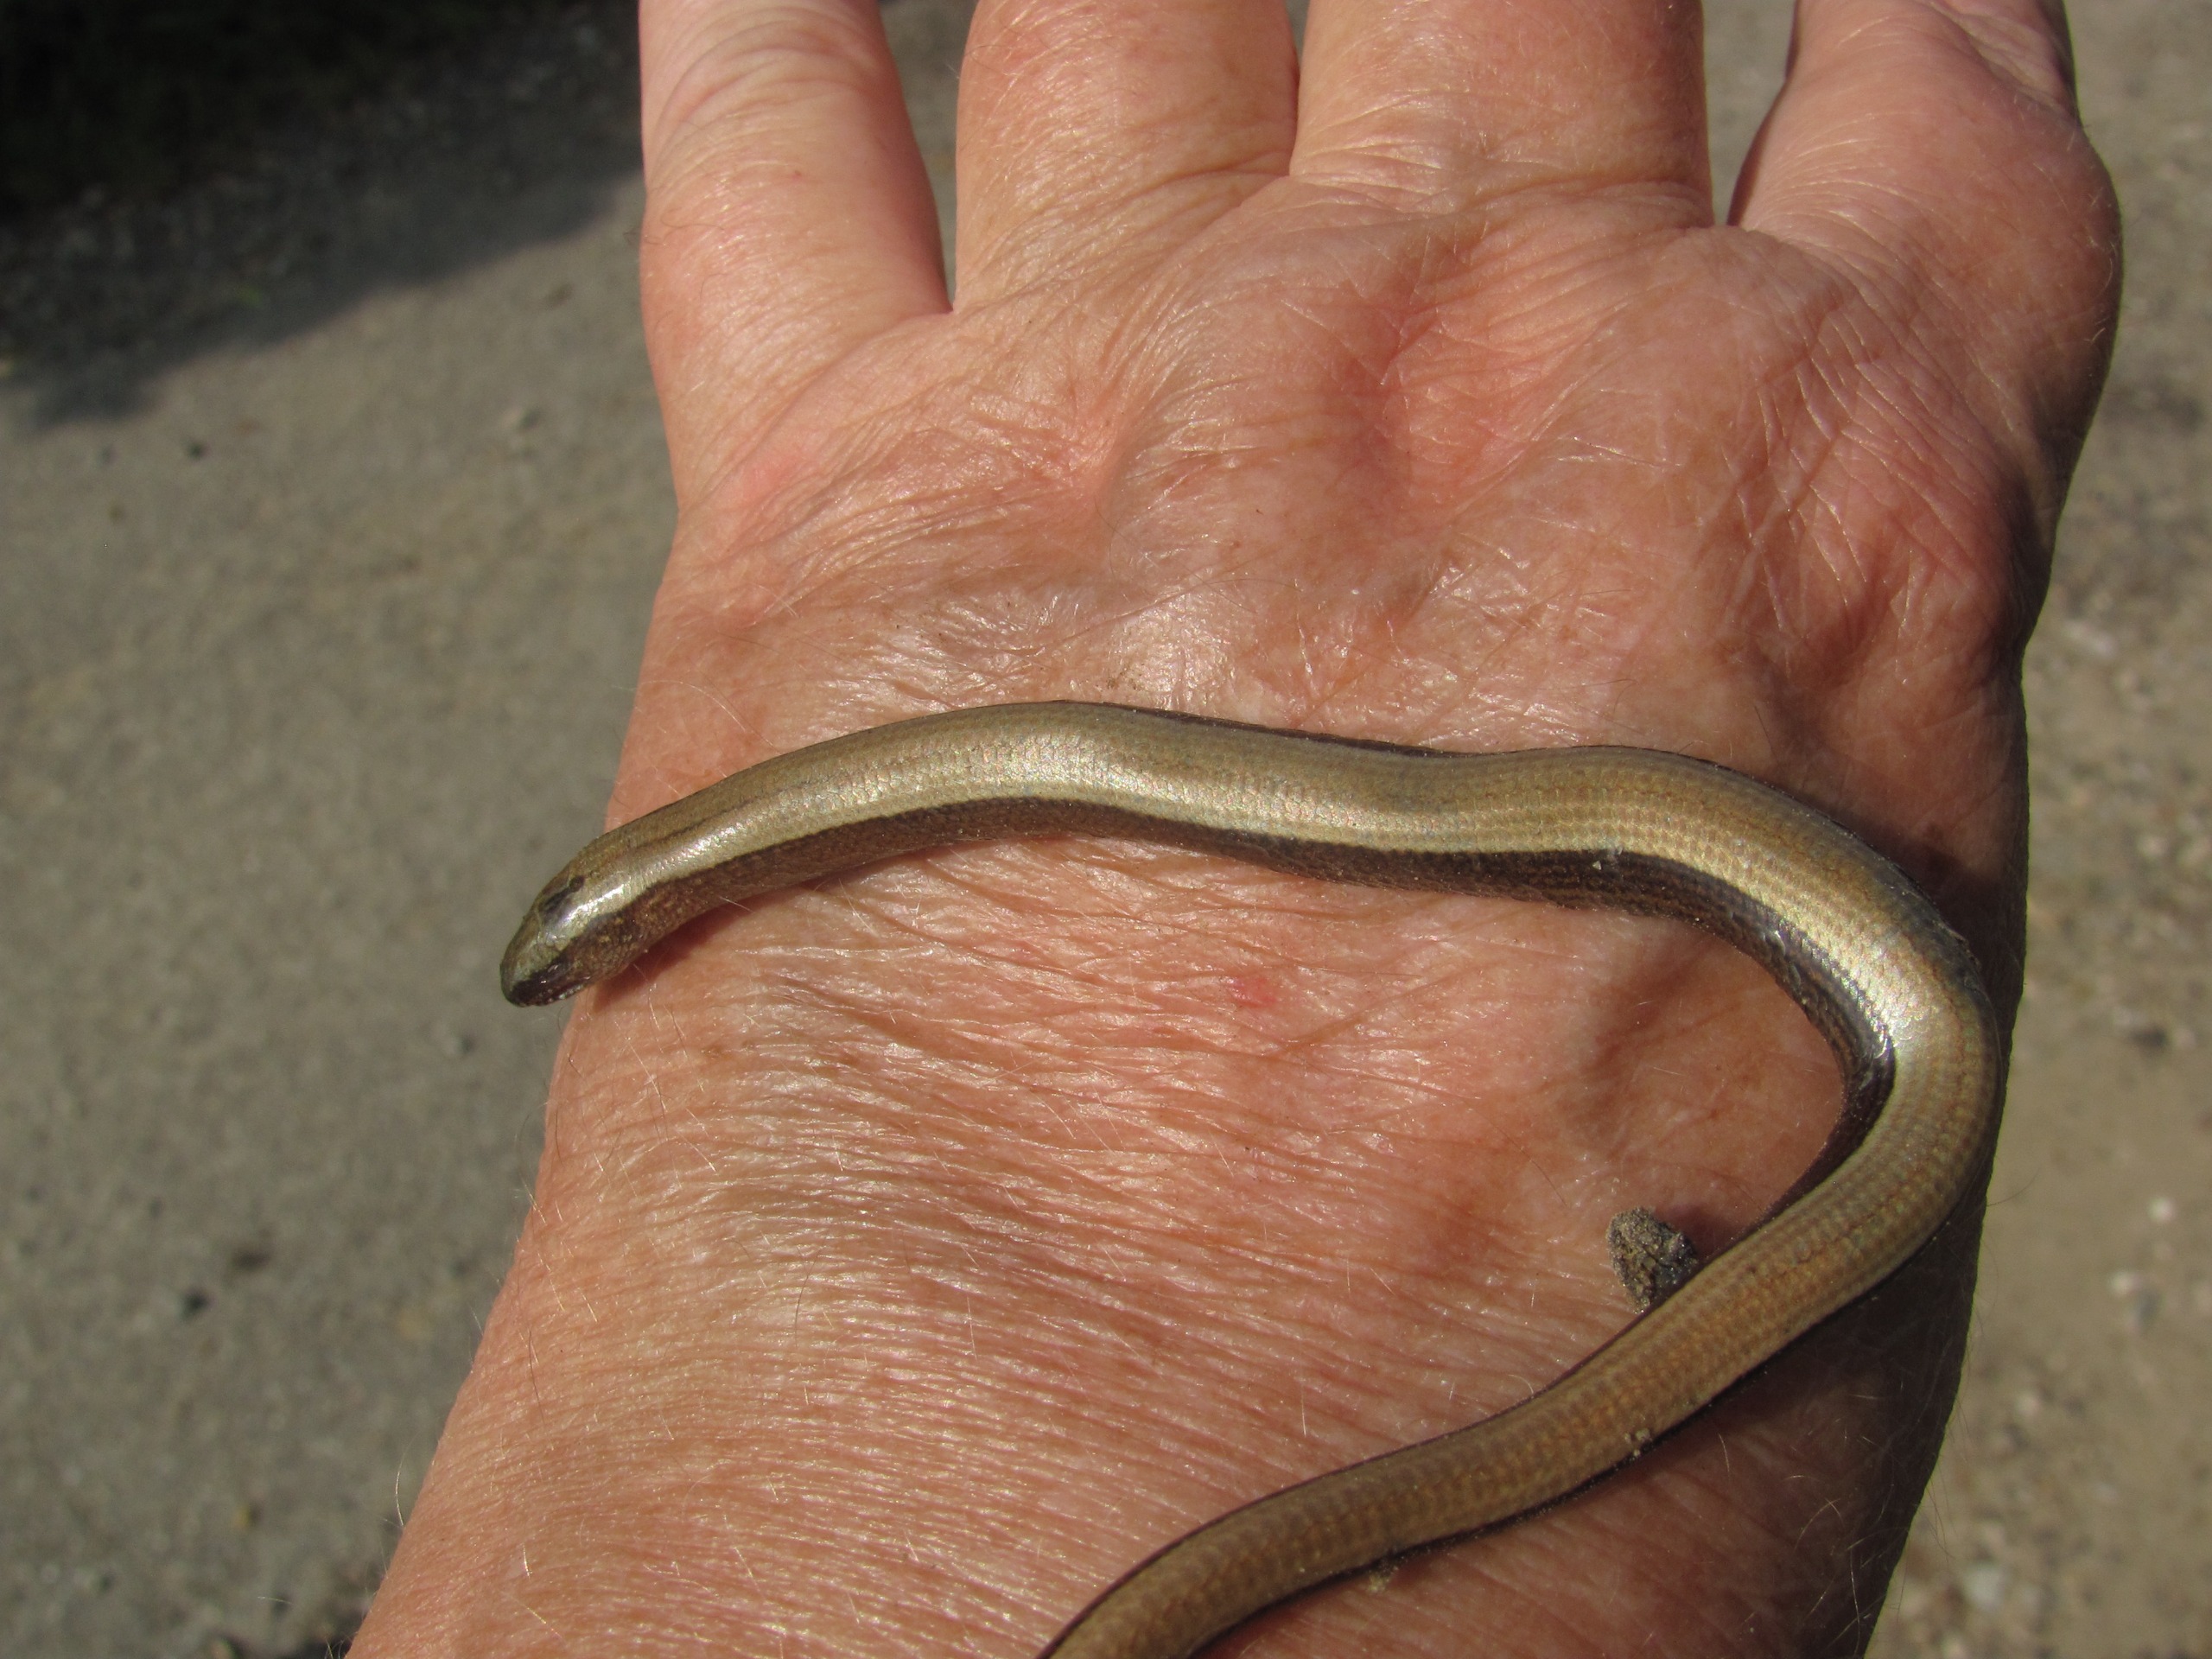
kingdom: Animalia
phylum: Chordata
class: Squamata
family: Anguidae
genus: Anguis
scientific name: Anguis fragilis
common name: Stålorm
